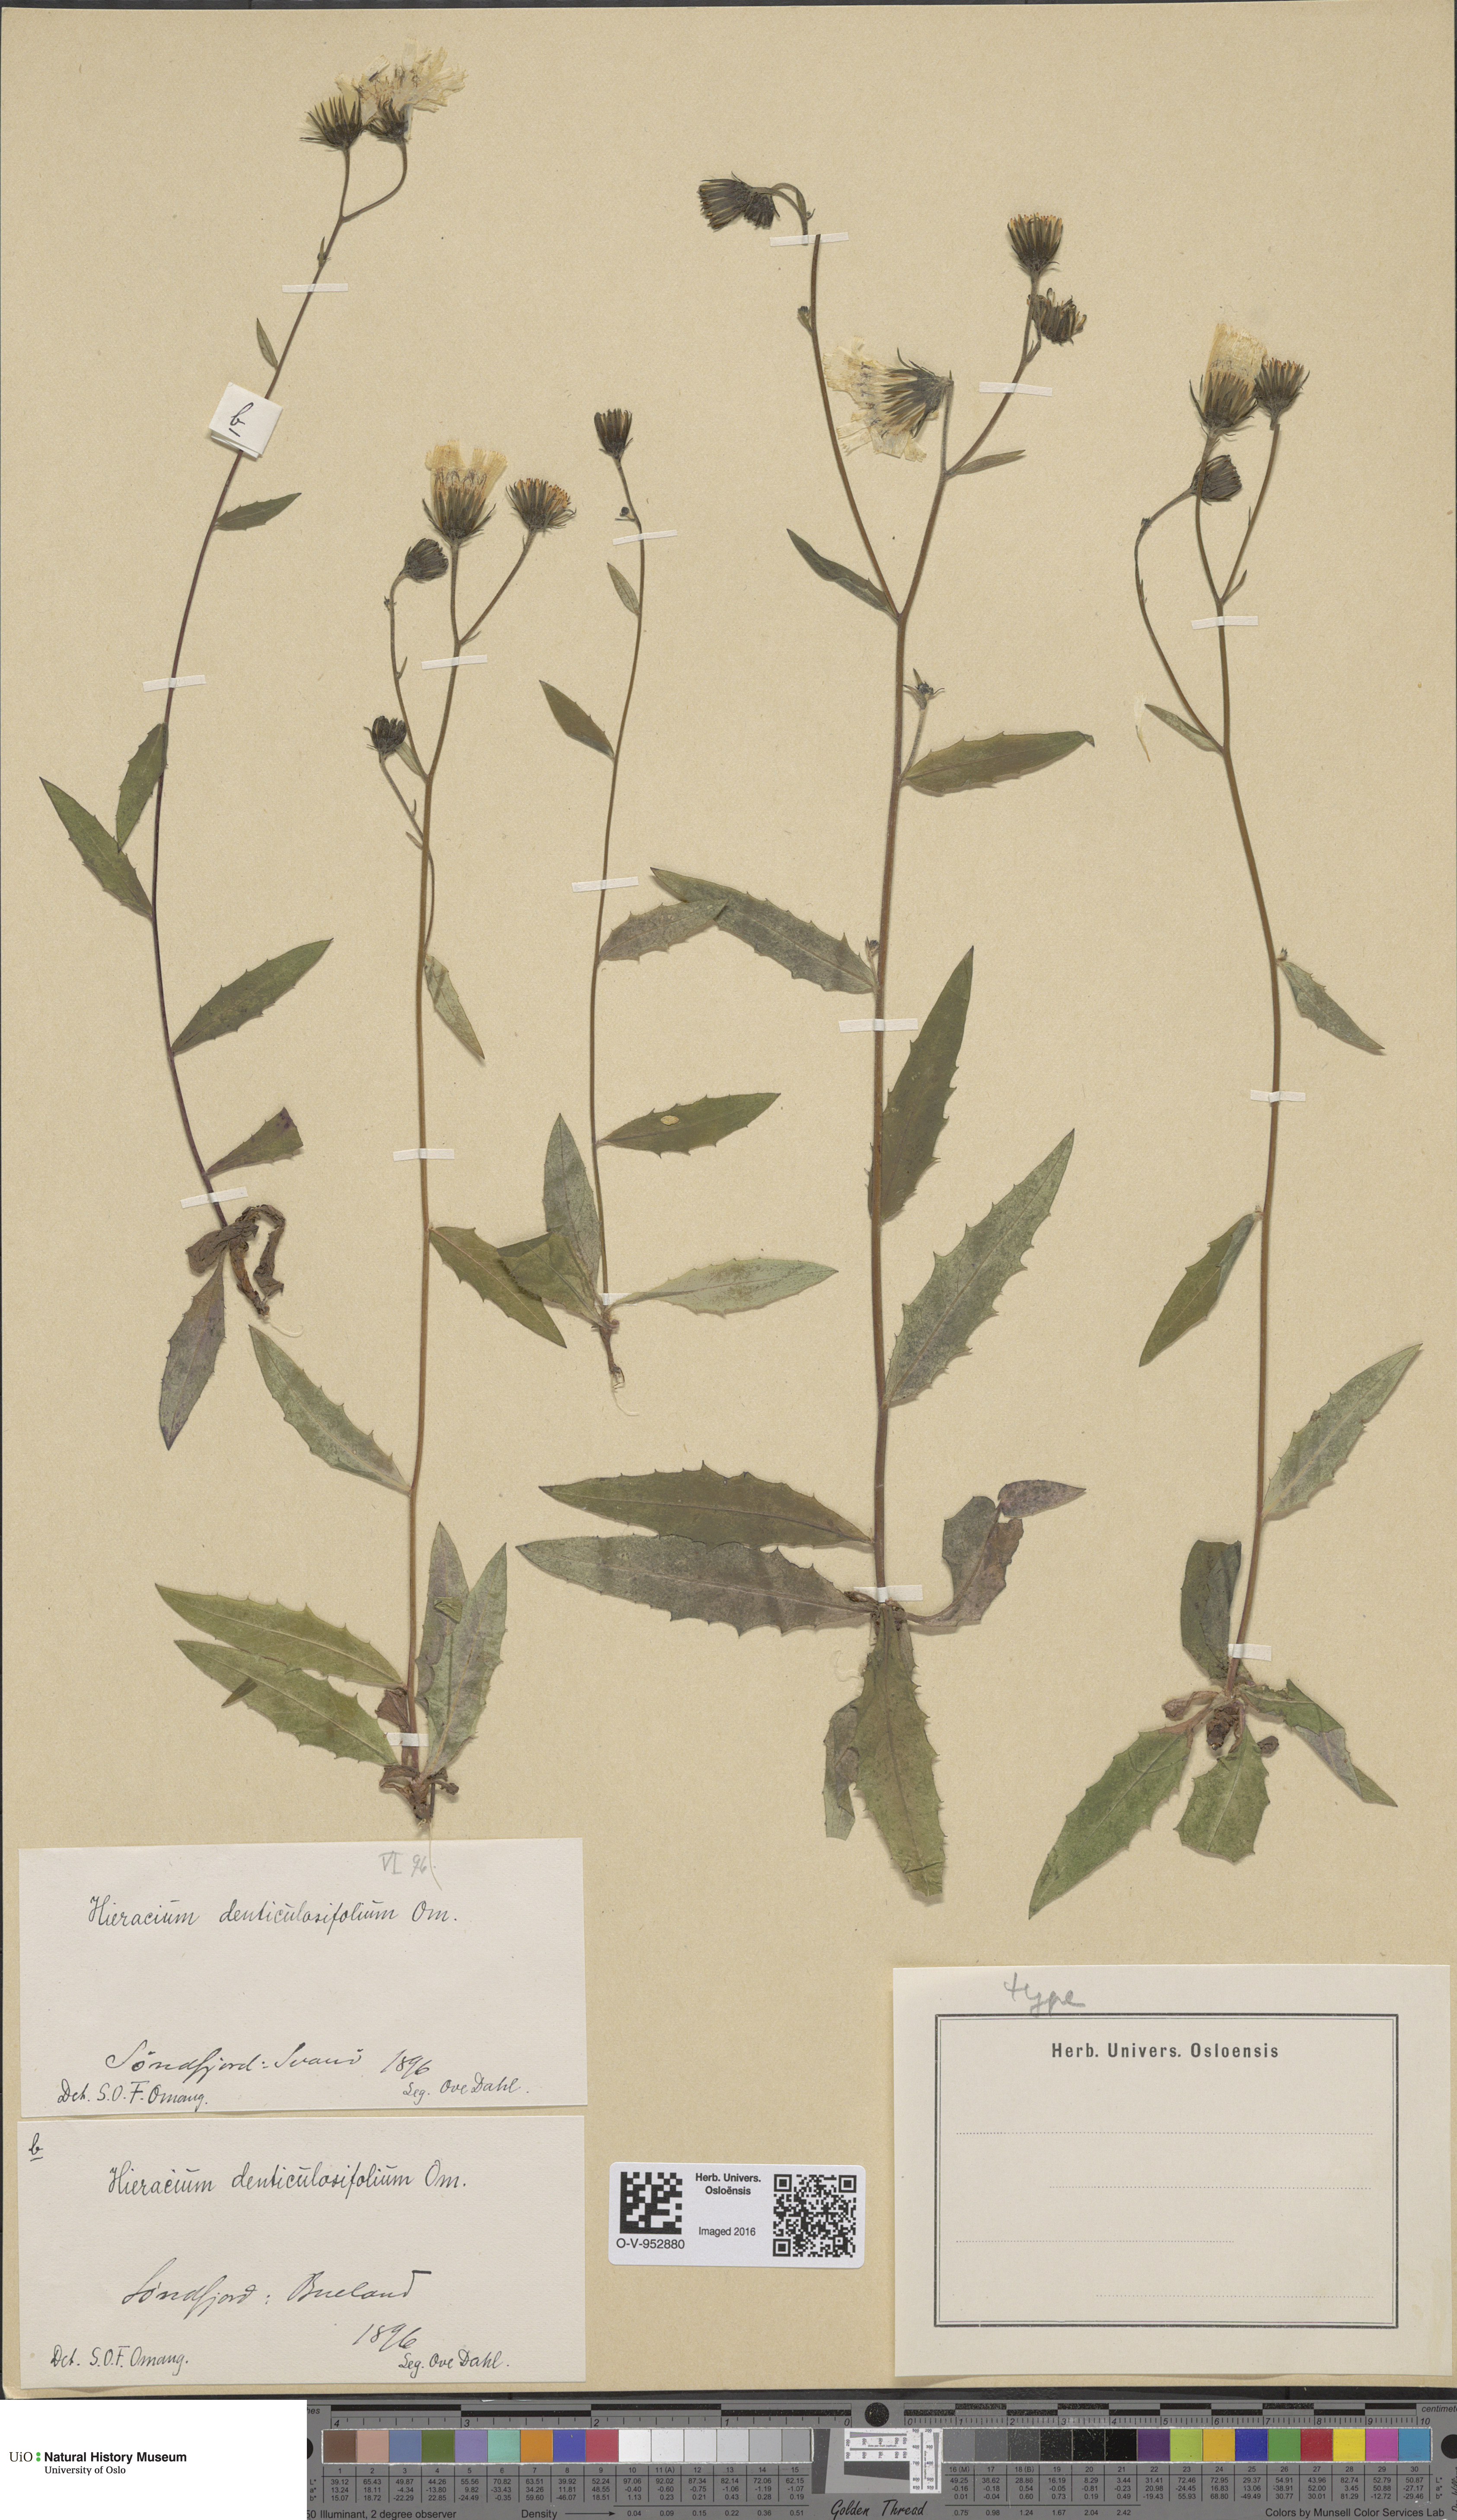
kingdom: Plantae
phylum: Tracheophyta
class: Magnoliopsida
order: Asterales
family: Asteraceae
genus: Hieracium
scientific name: Hieracium
